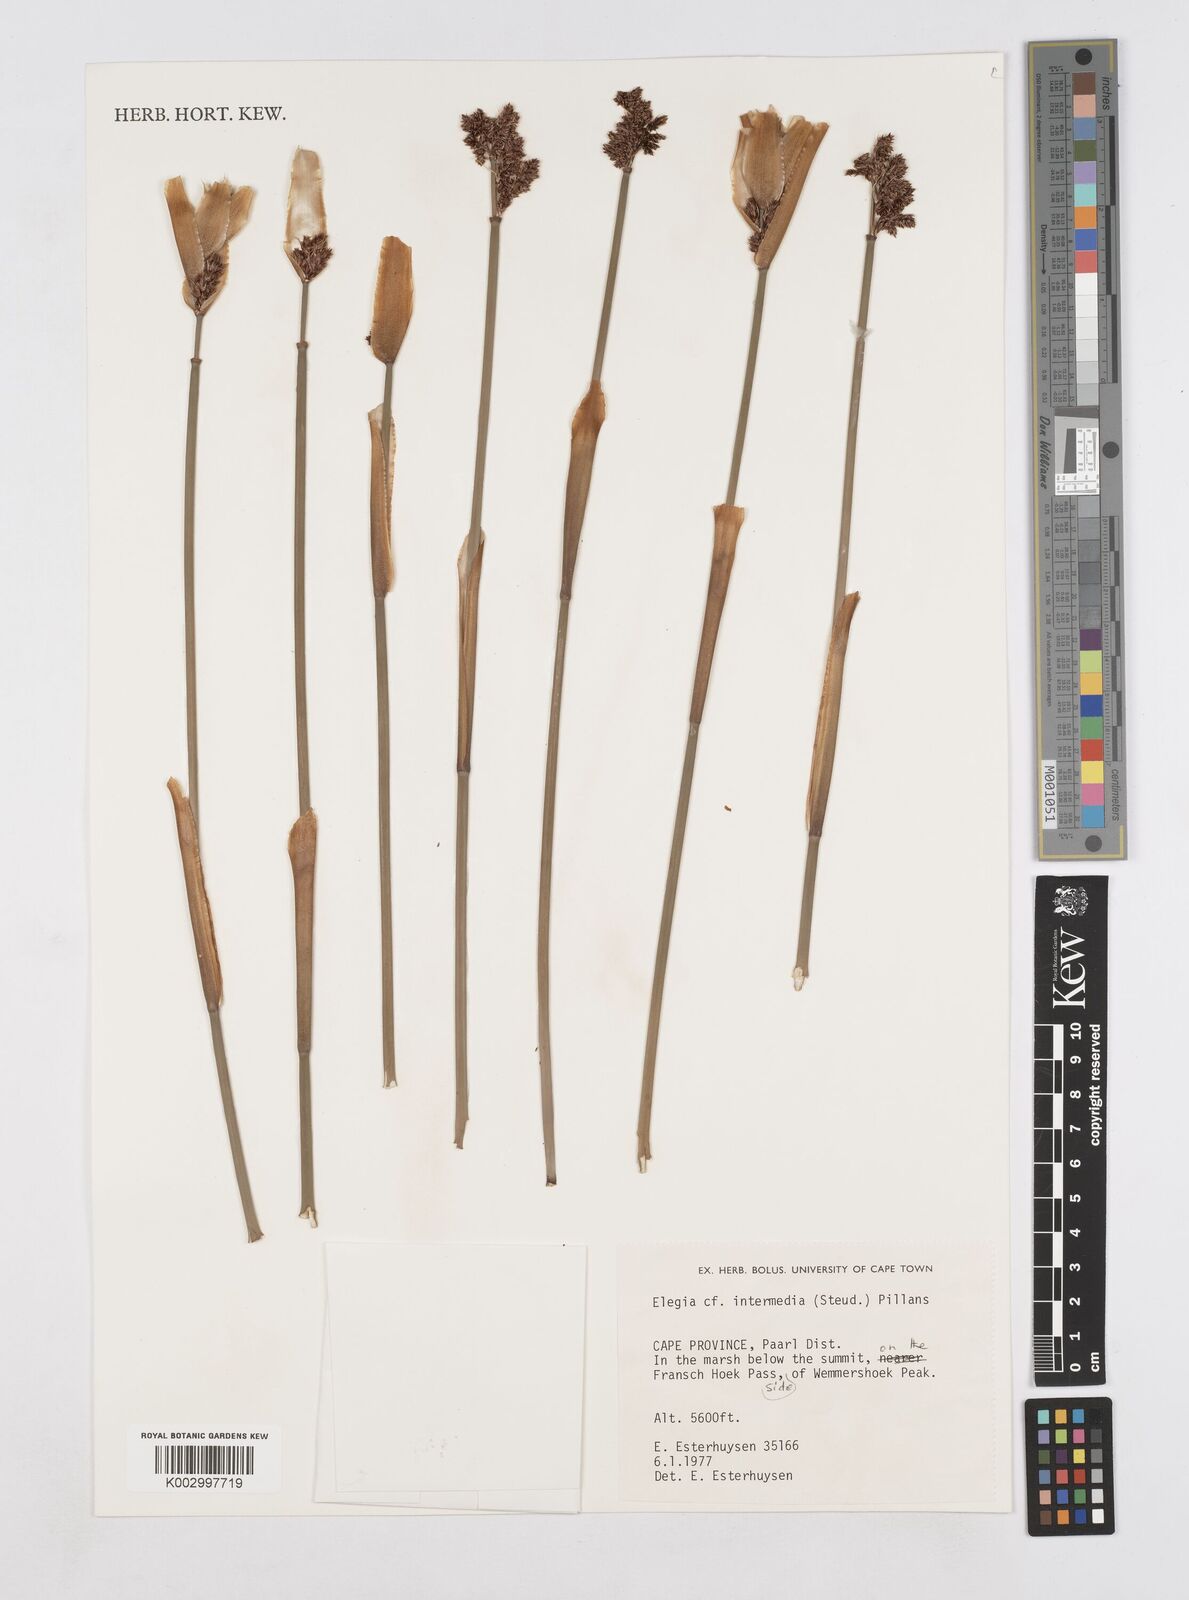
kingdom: Plantae
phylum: Tracheophyta
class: Liliopsida
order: Poales
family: Restionaceae
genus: Elegia
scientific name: Elegia intermedia
